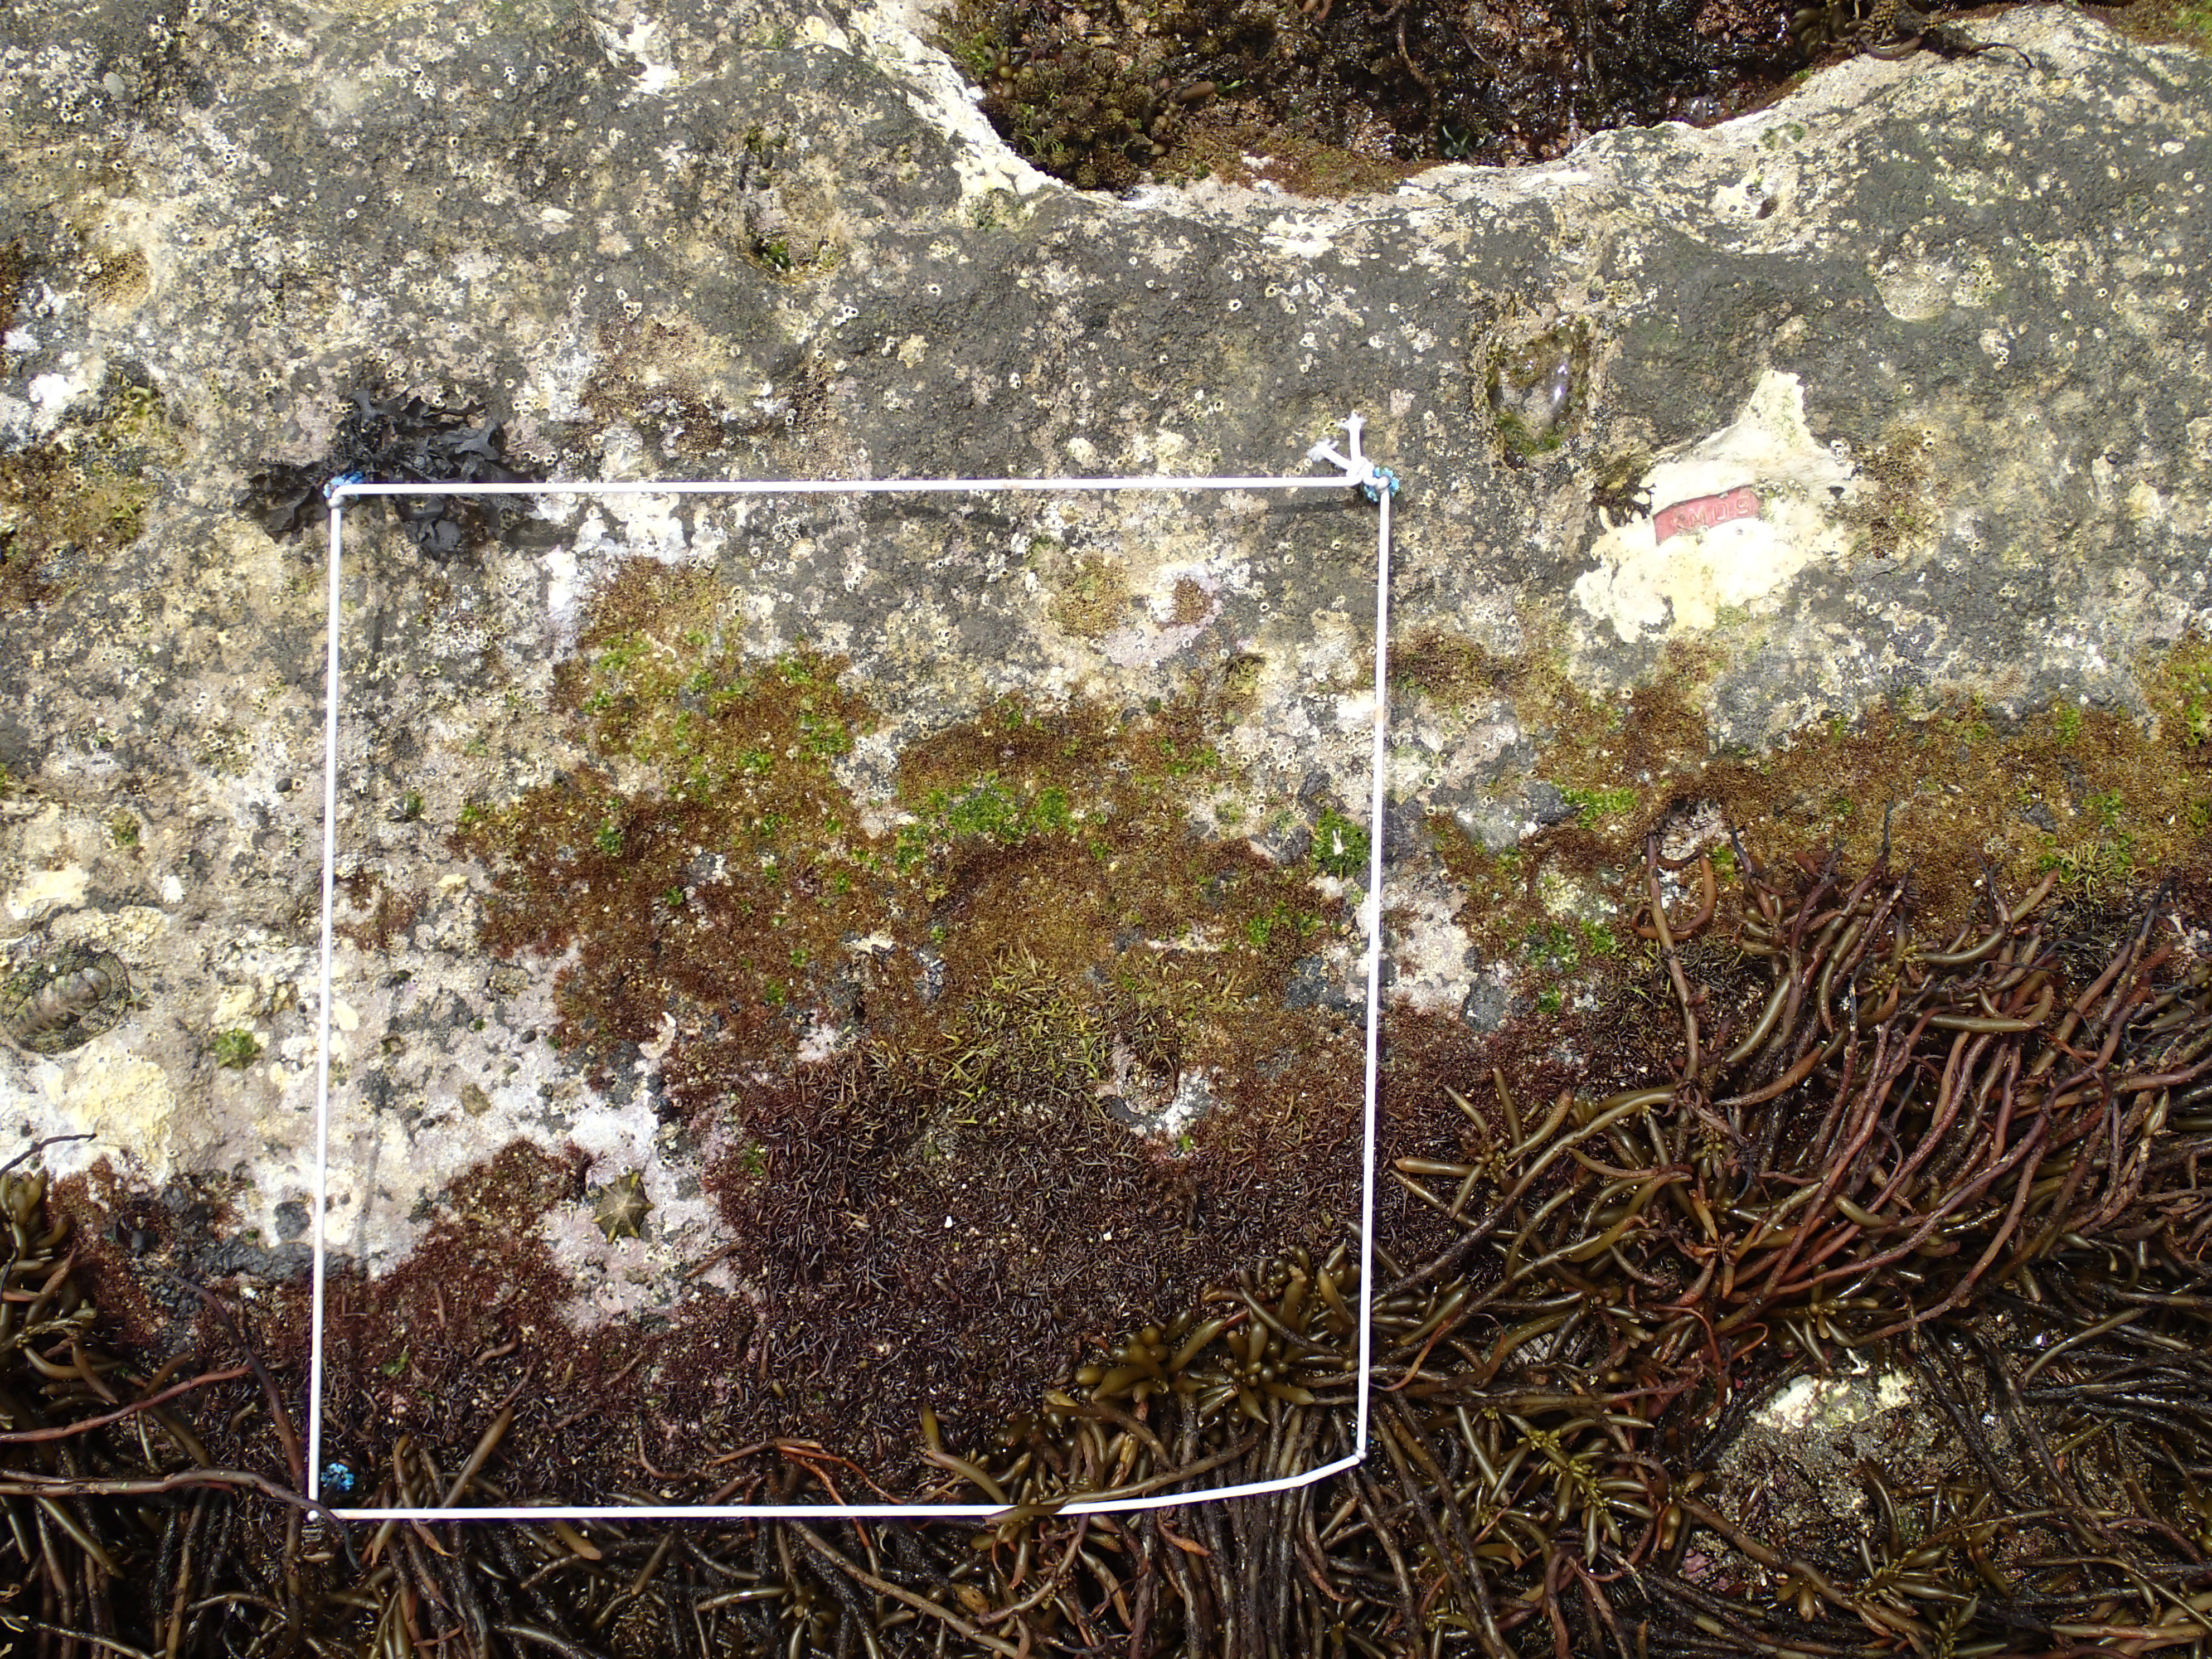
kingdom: Animalia
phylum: Arthropoda
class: Maxillopoda
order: Sessilia
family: Chthamalidae
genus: Chthamalus
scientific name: Chthamalus challengeri
